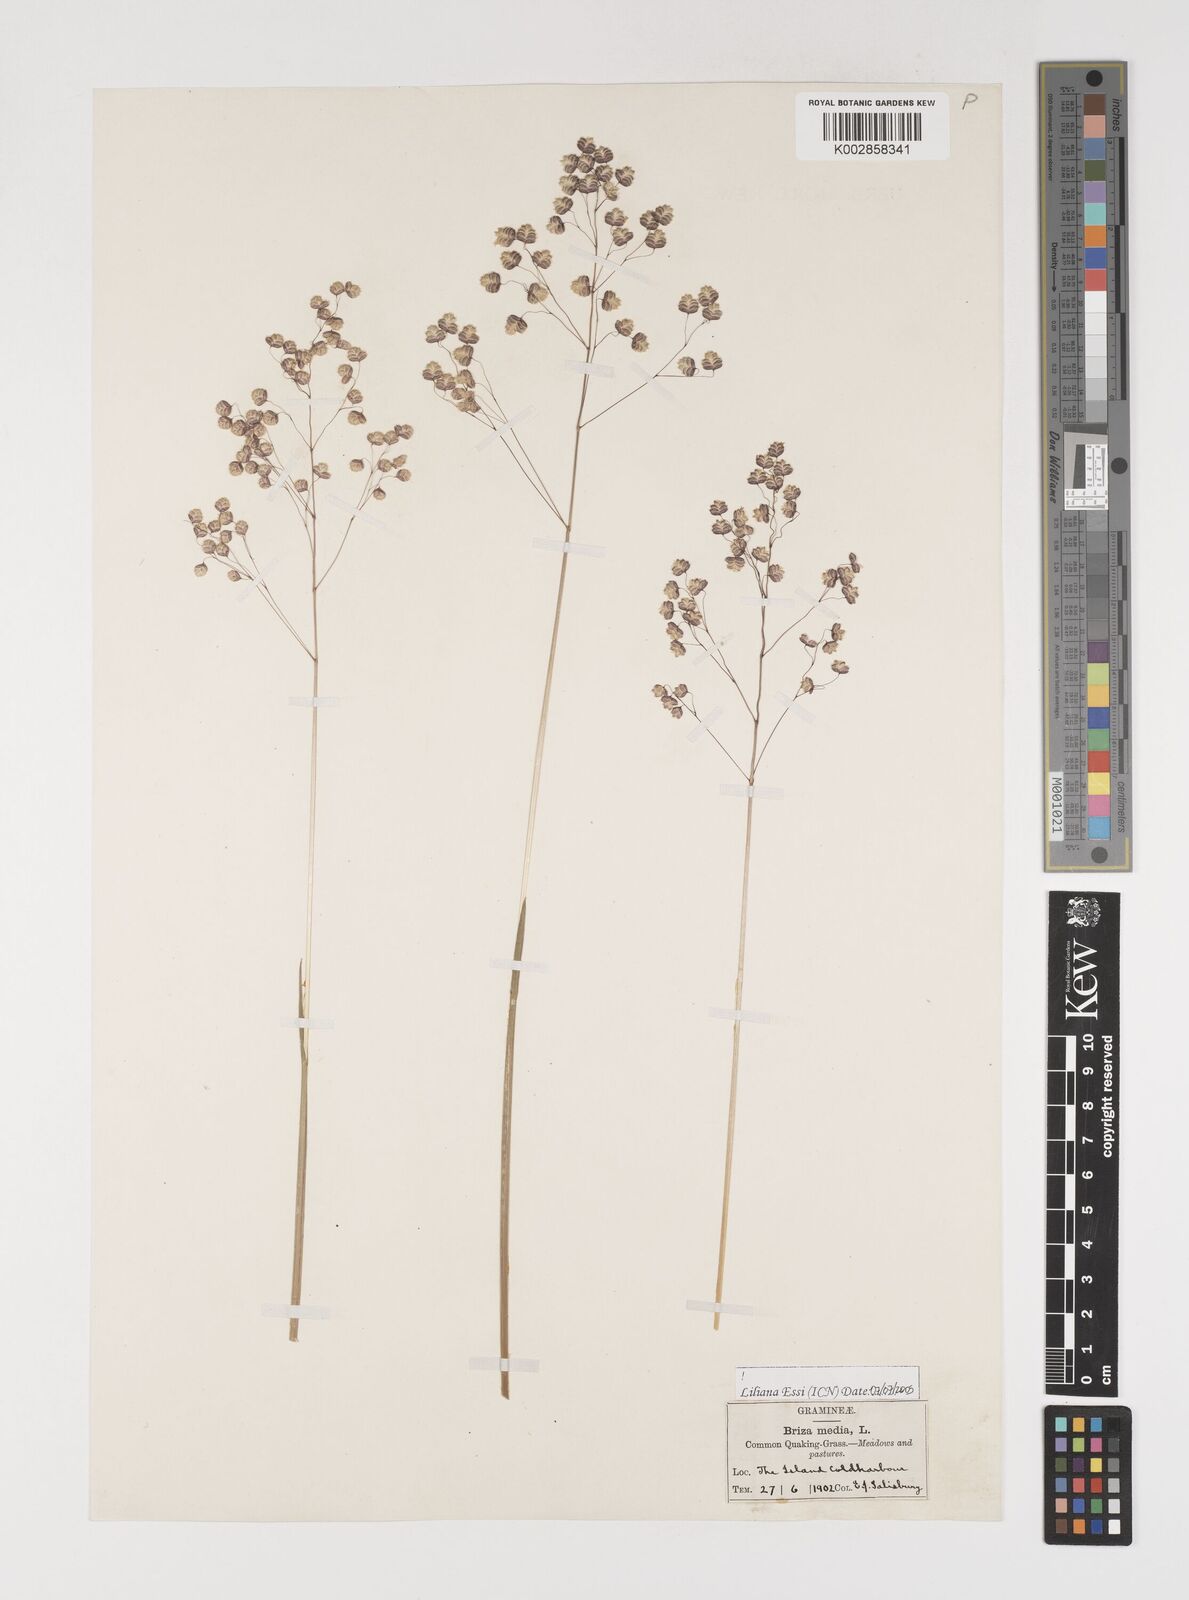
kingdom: Plantae
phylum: Tracheophyta
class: Liliopsida
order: Poales
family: Poaceae
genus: Briza
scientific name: Briza media
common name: Quaking grass
